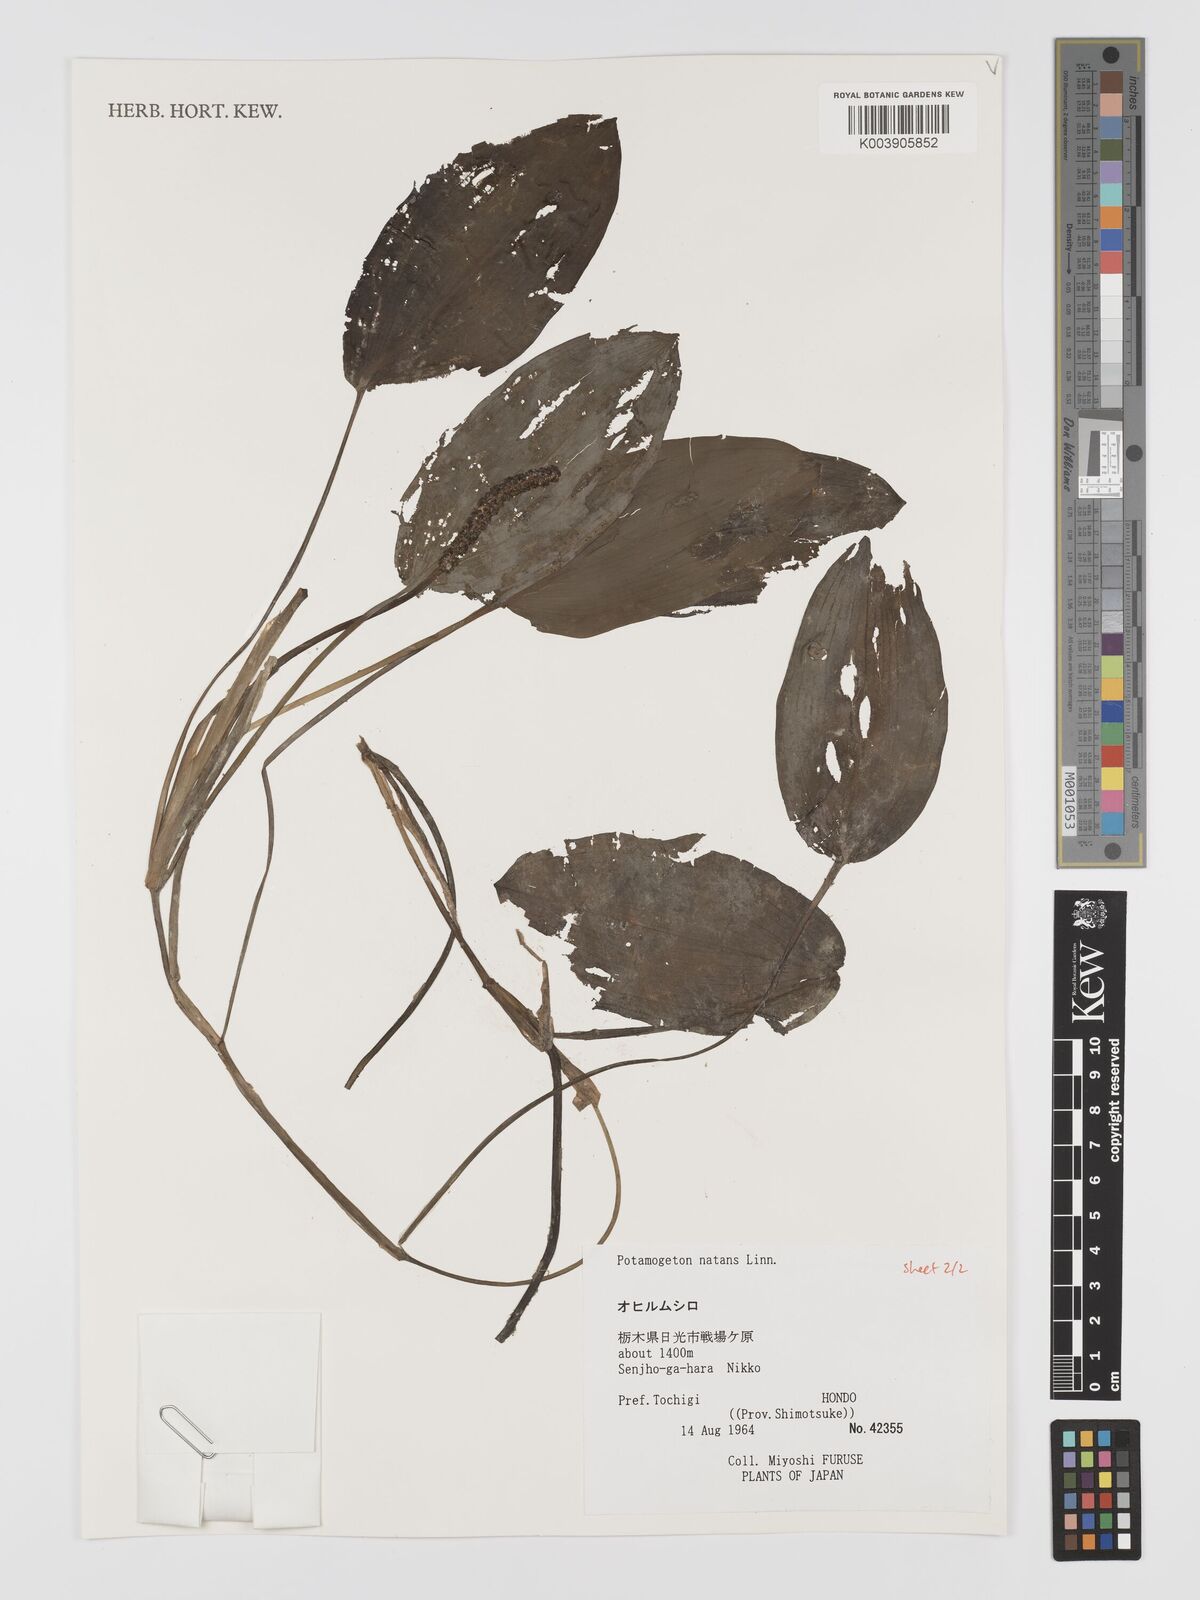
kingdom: Plantae
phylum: Tracheophyta
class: Liliopsida
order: Alismatales
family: Potamogetonaceae
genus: Potamogeton
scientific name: Potamogeton natans
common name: Broad-leaved pondweed
